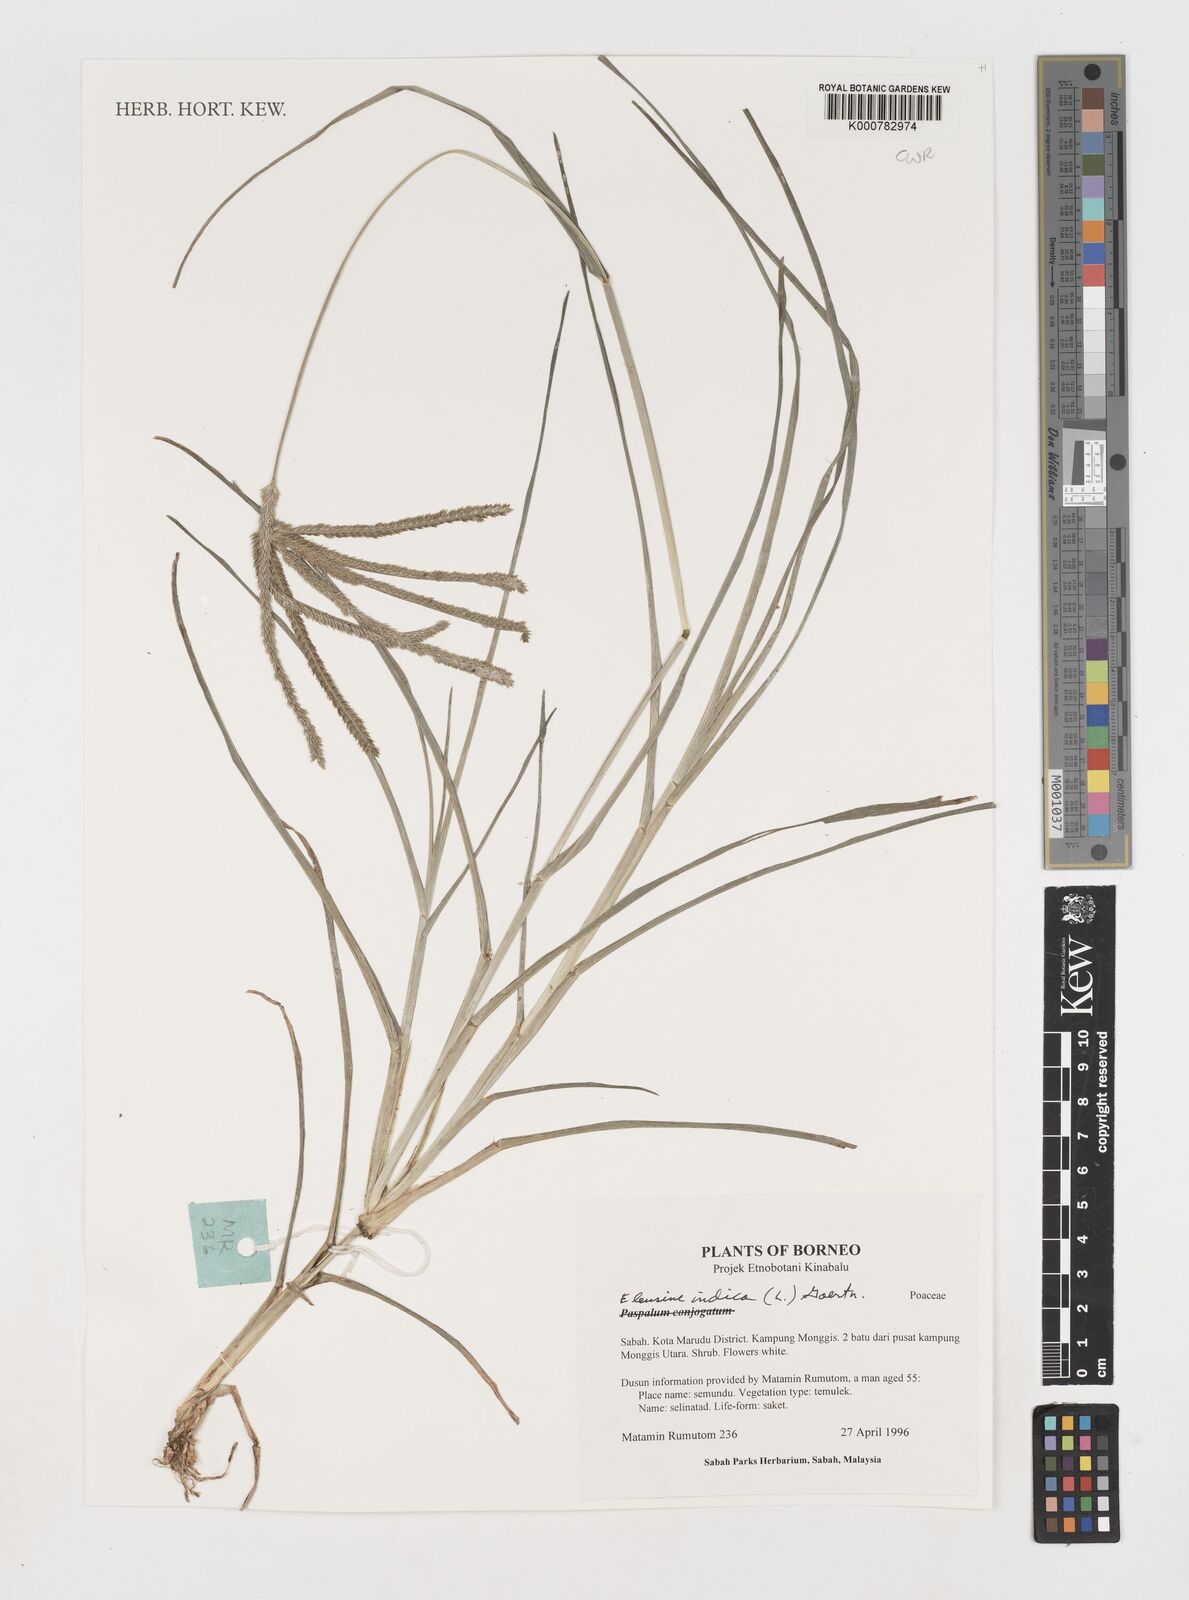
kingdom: Plantae
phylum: Tracheophyta
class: Liliopsida
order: Poales
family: Poaceae
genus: Eleusine
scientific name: Eleusine indica
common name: Yard-grass
